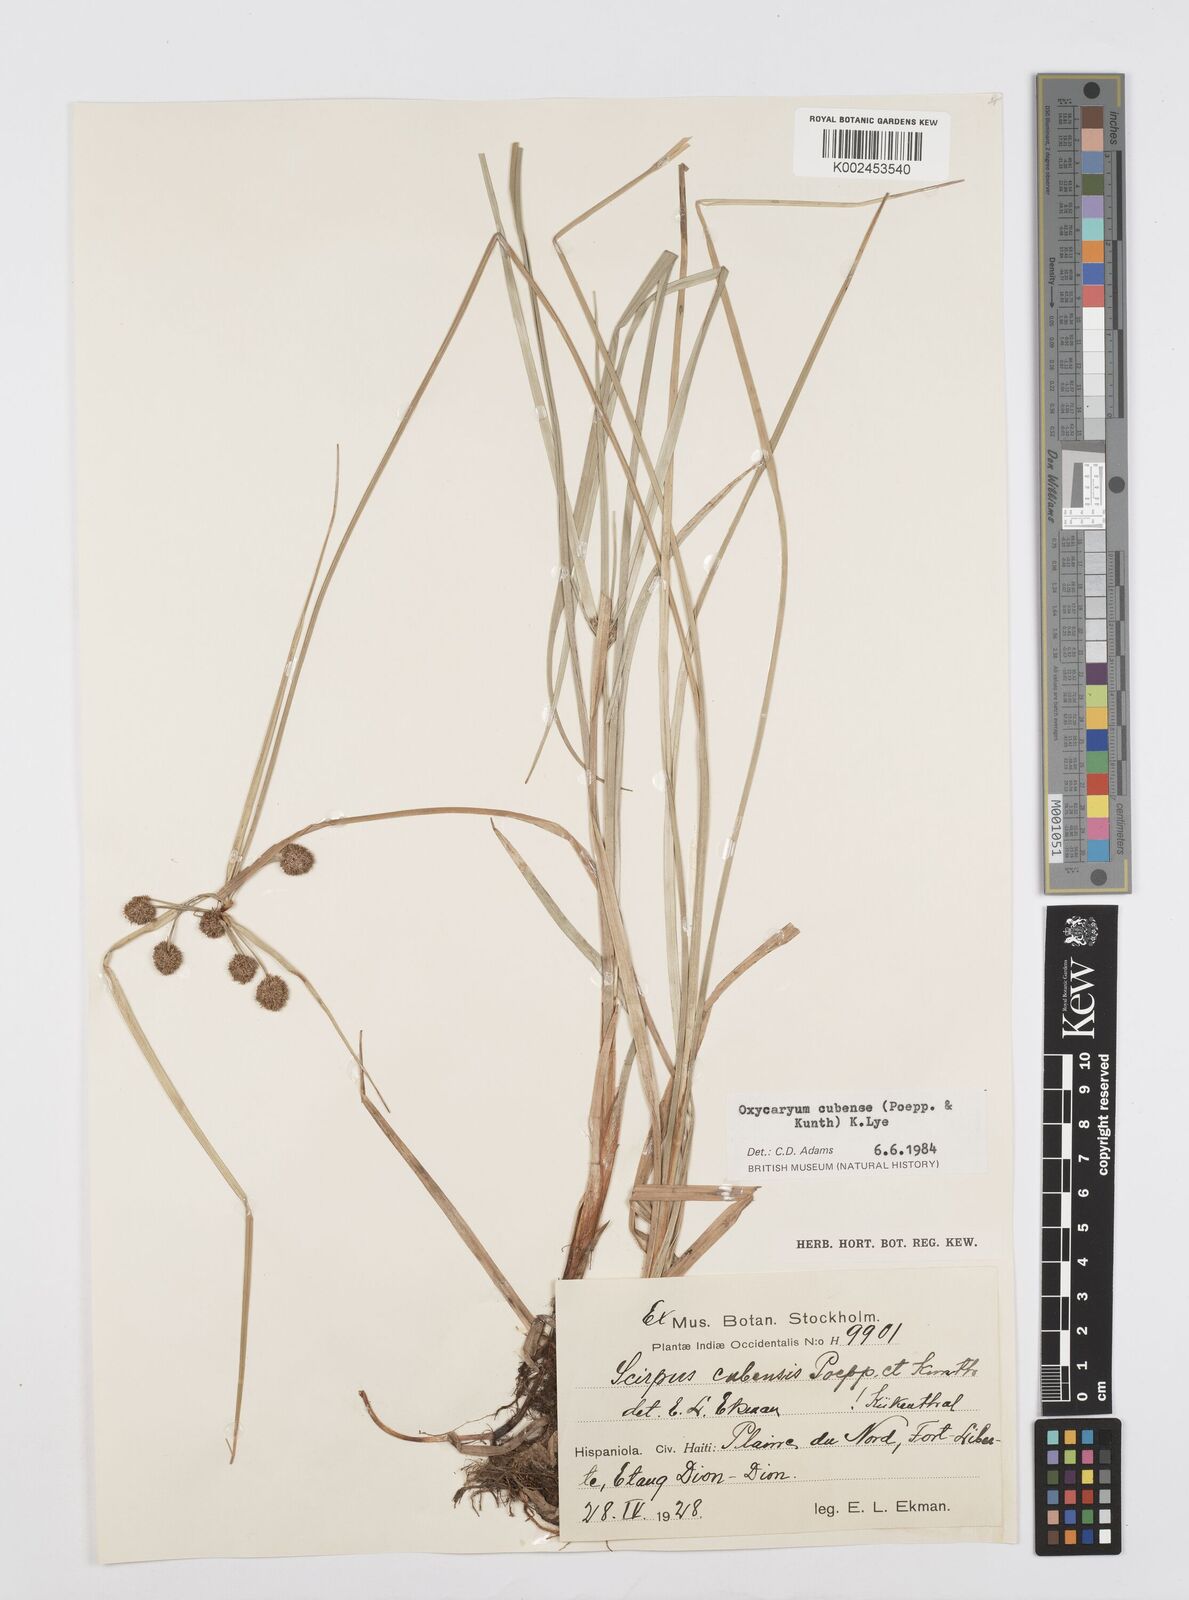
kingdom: Plantae
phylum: Tracheophyta
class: Liliopsida
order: Poales
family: Cyperaceae
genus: Cyperus
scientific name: Cyperus elegans
